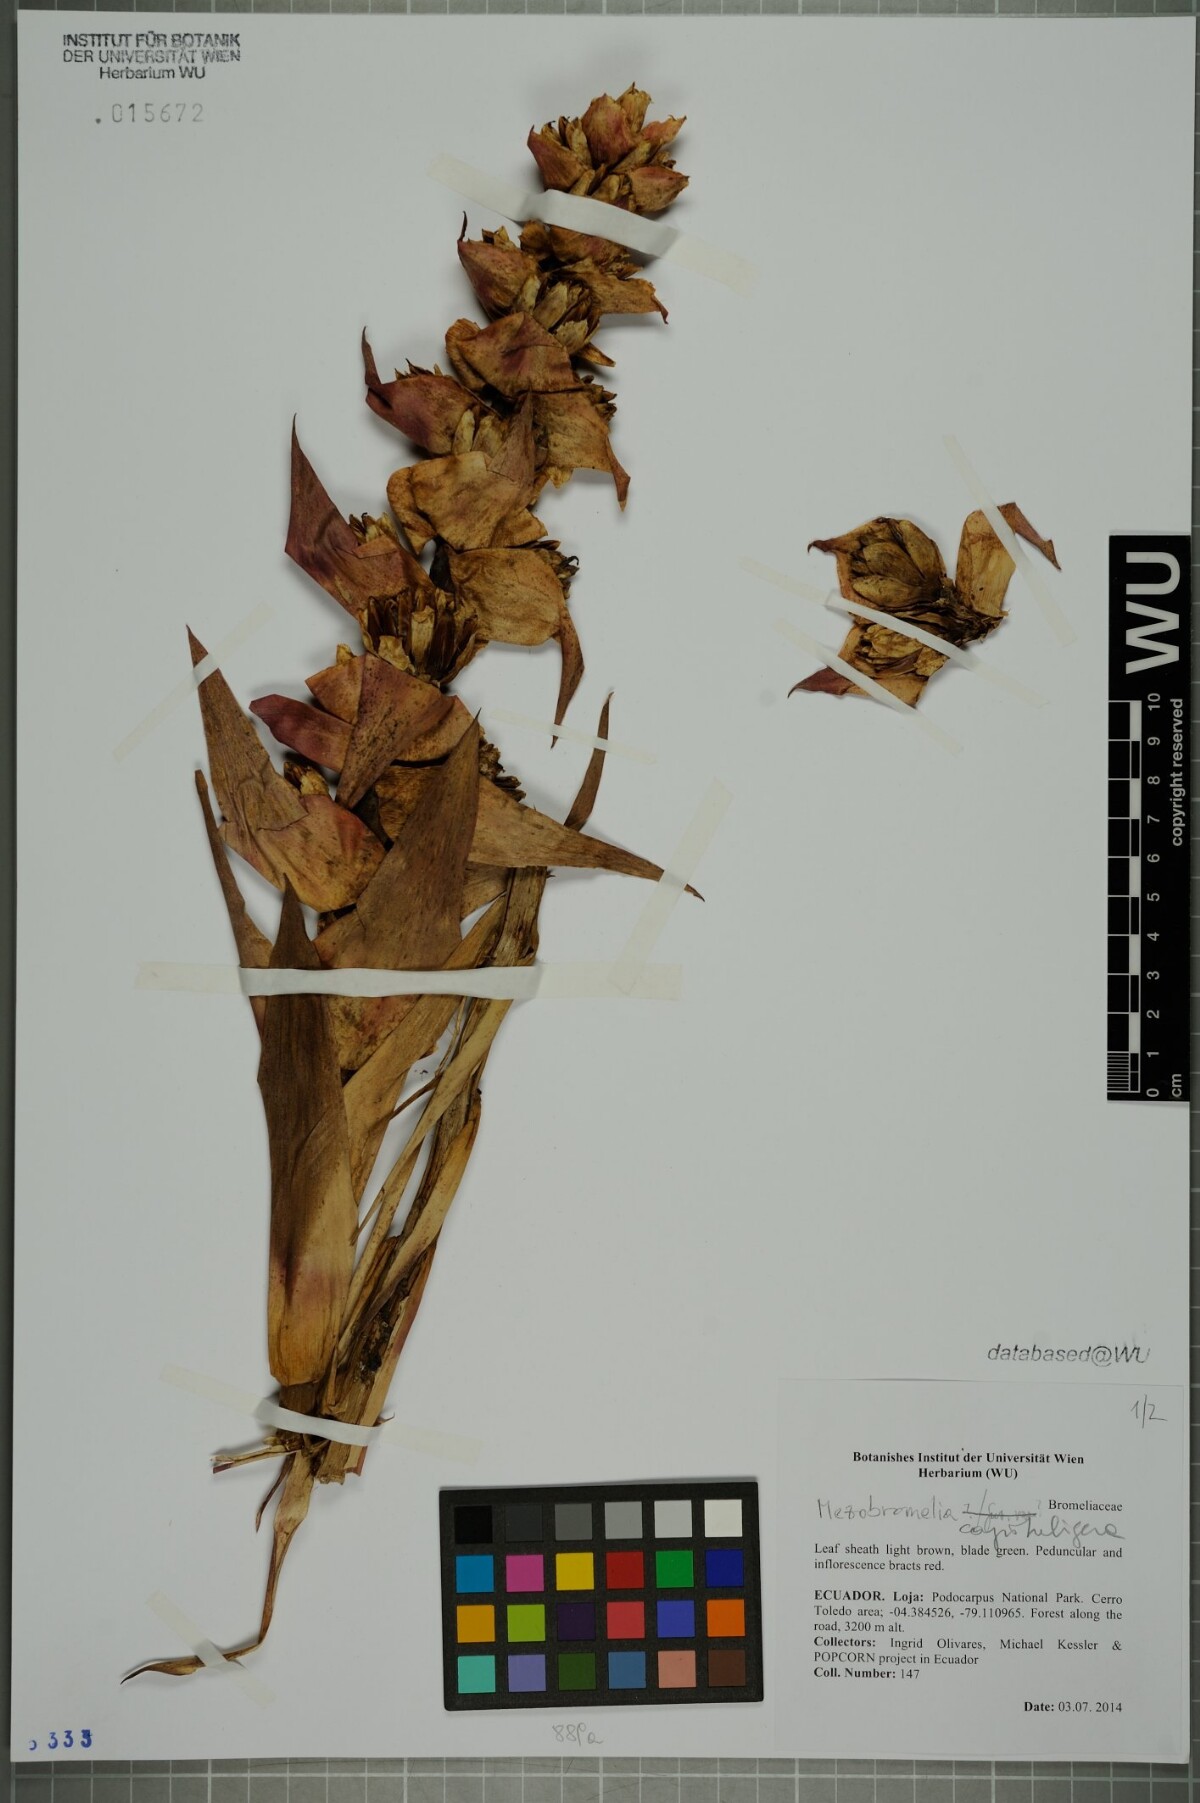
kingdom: Plantae
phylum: Tracheophyta
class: Liliopsida
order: Poales
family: Bromeliaceae
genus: Cipuropsis
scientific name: Cipuropsis capituligera
